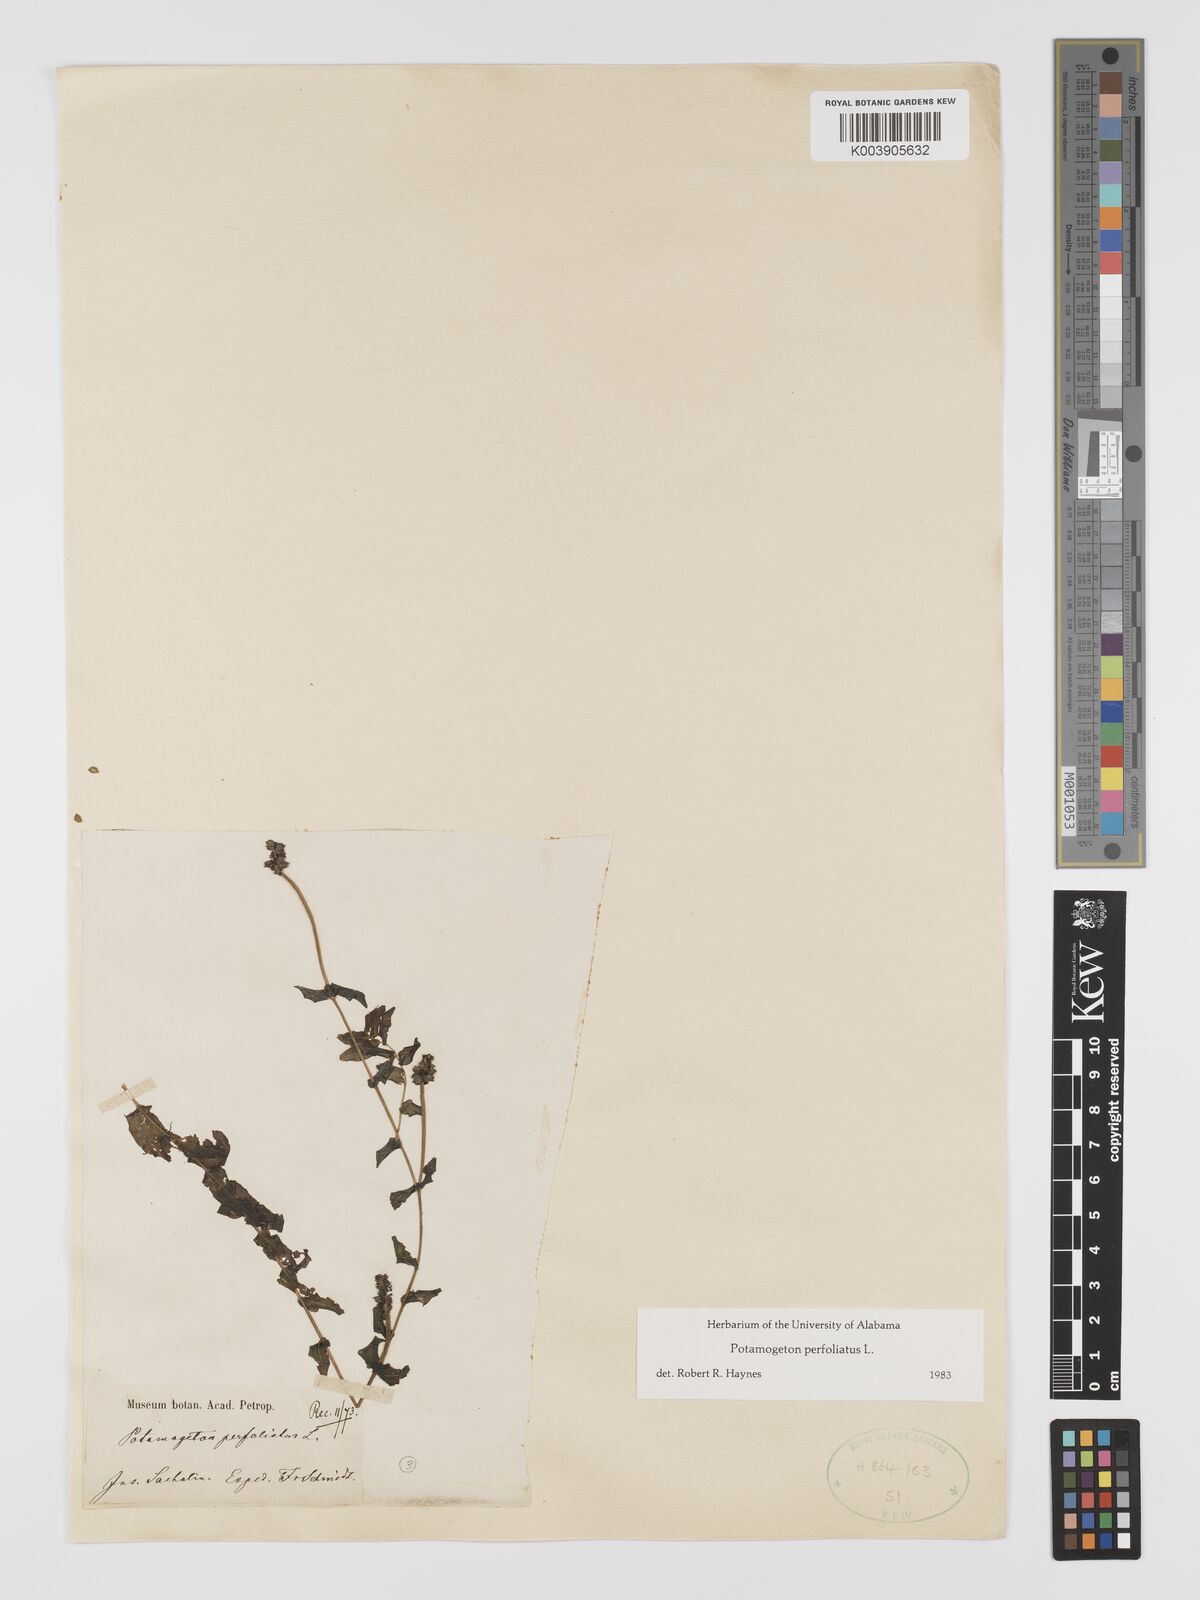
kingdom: Plantae
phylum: Tracheophyta
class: Liliopsida
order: Alismatales
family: Potamogetonaceae
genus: Potamogeton
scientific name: Potamogeton perfoliatus
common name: Perfoliate pondweed
